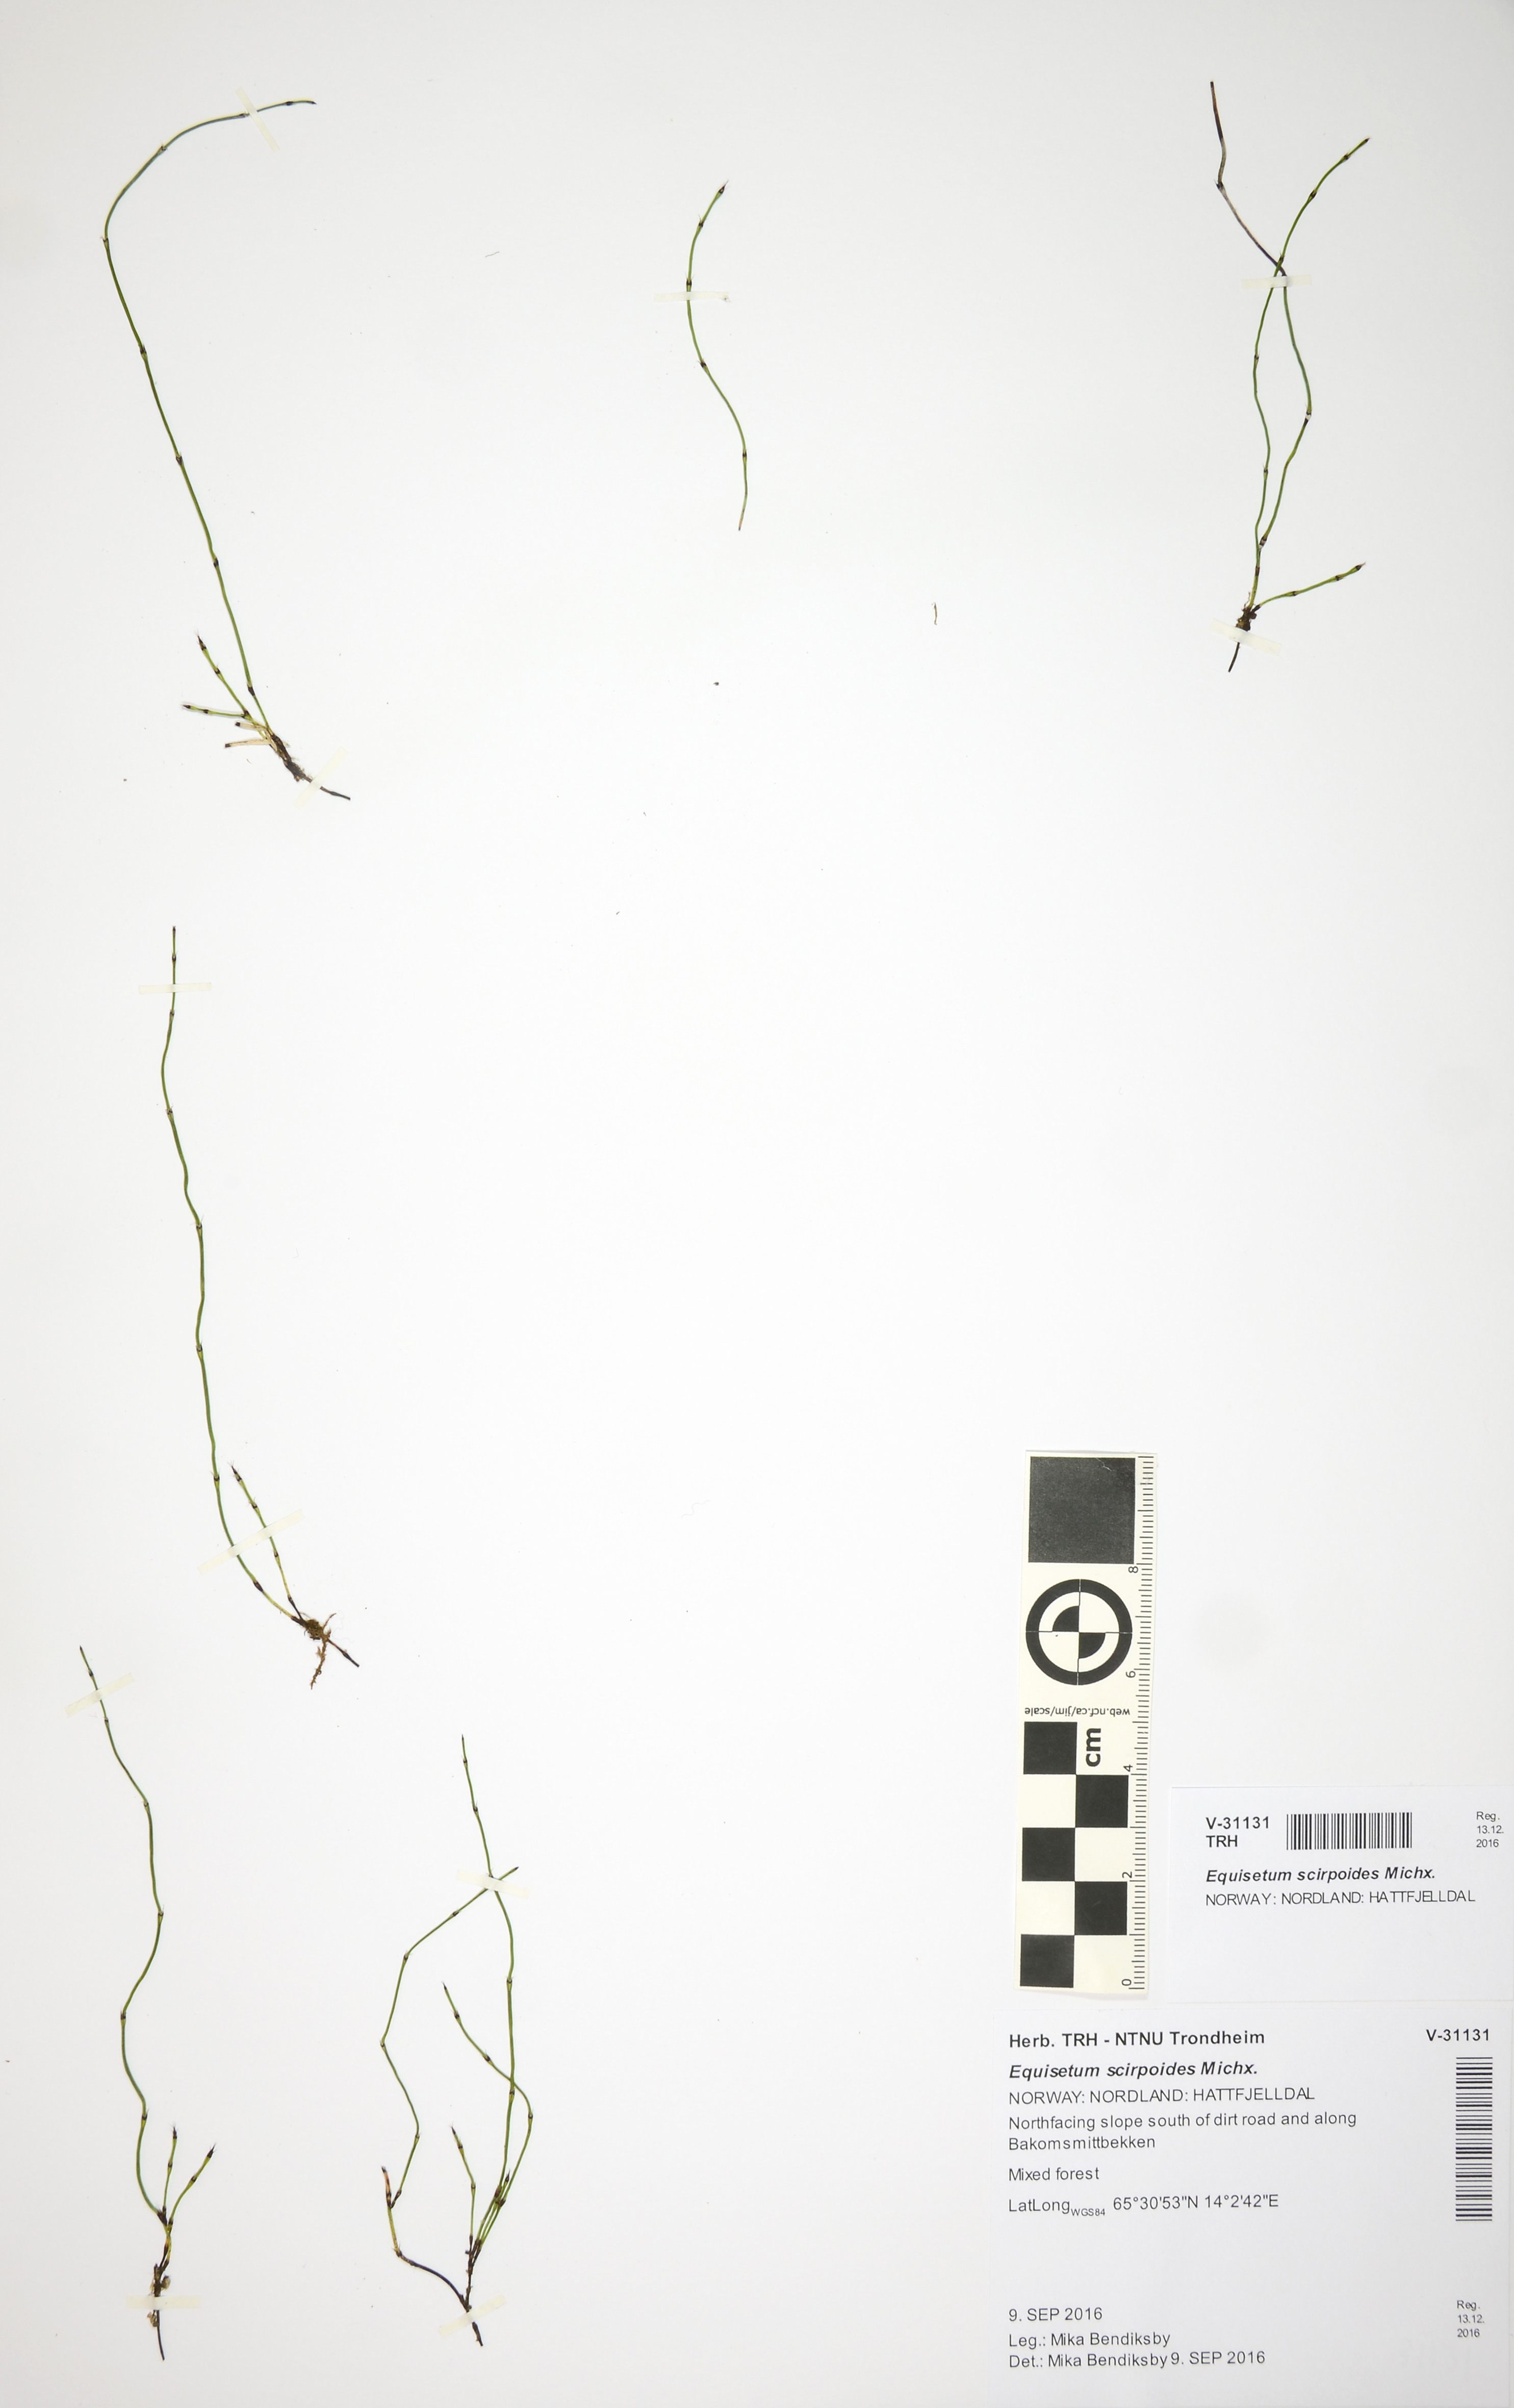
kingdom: Plantae
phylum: Tracheophyta
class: Polypodiopsida
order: Equisetales
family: Equisetaceae
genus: Equisetum
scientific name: Equisetum scirpoides
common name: Delicate horsetail
